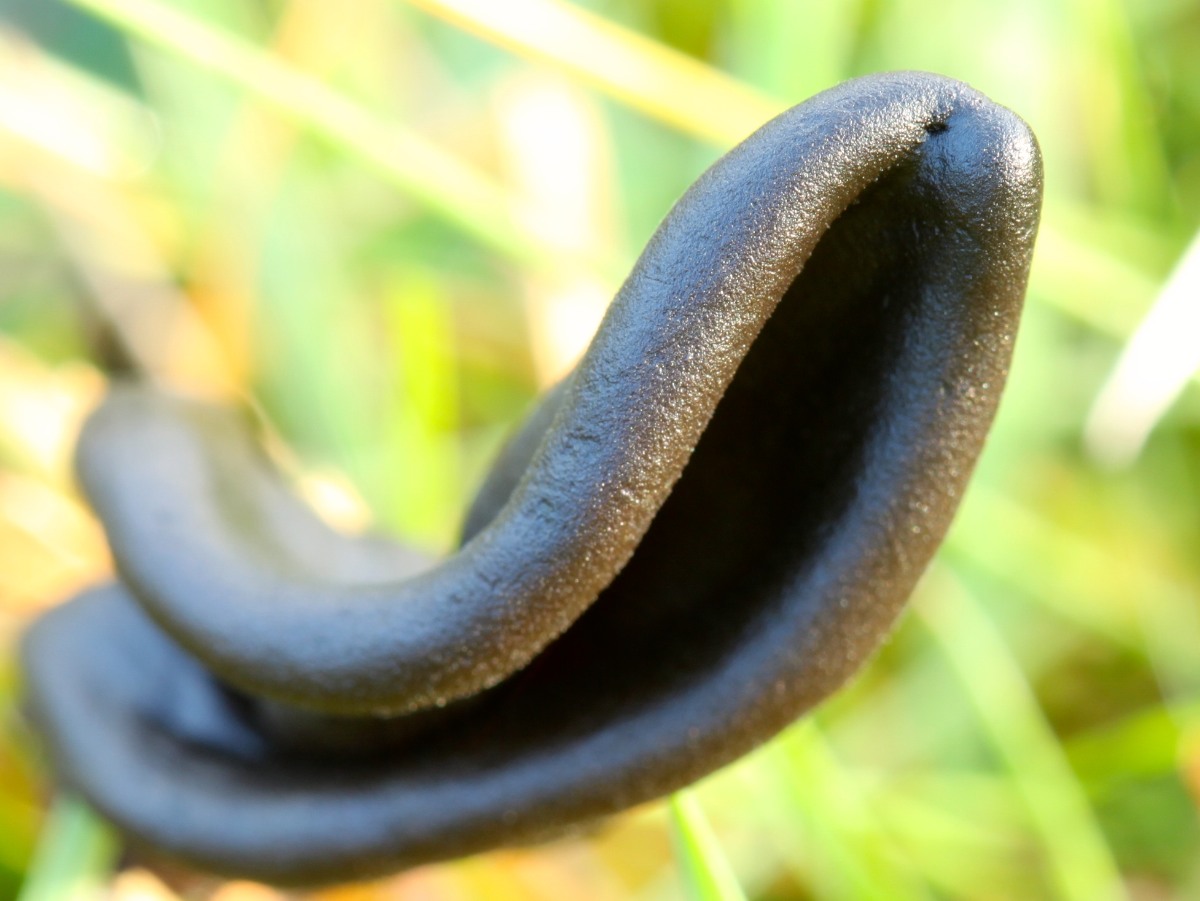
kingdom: Fungi
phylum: Ascomycota
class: Geoglossomycetes
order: Geoglossales
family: Geoglossaceae
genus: Hemileucoglossum
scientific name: Hemileucoglossum elongatum
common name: småsporet jordtunge
